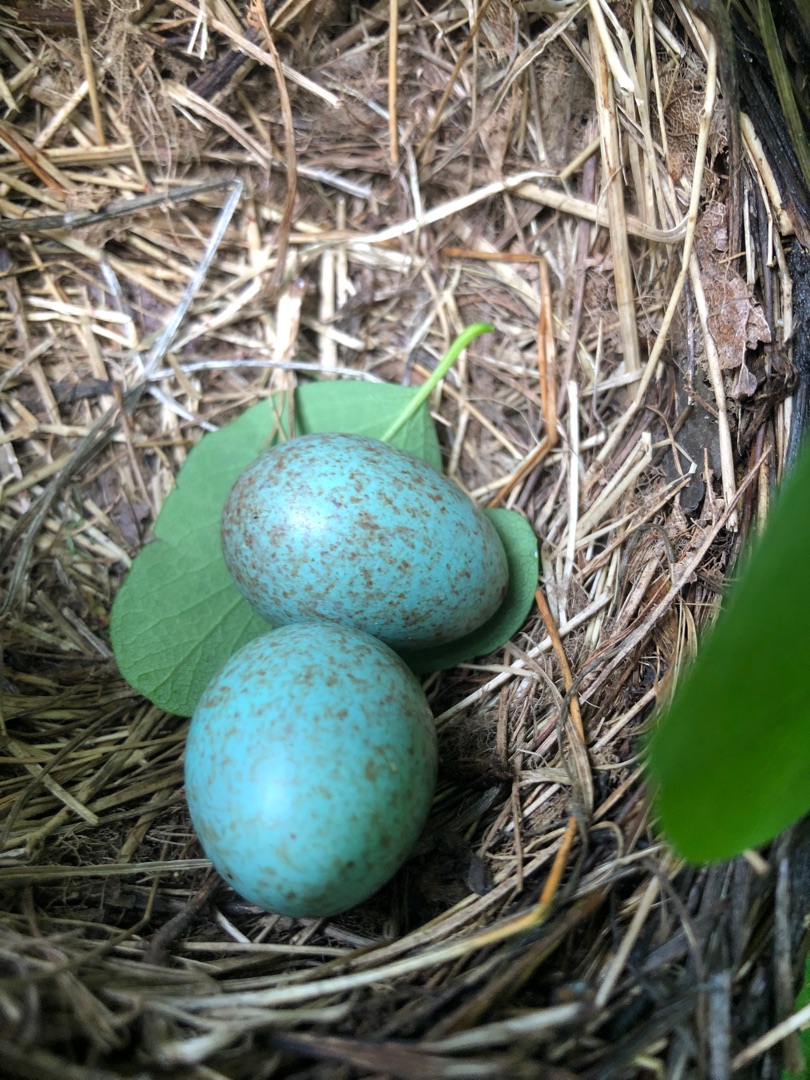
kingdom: Animalia
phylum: Chordata
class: Aves
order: Passeriformes
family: Turdidae
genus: Turdus
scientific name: Turdus merula
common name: Solsort
